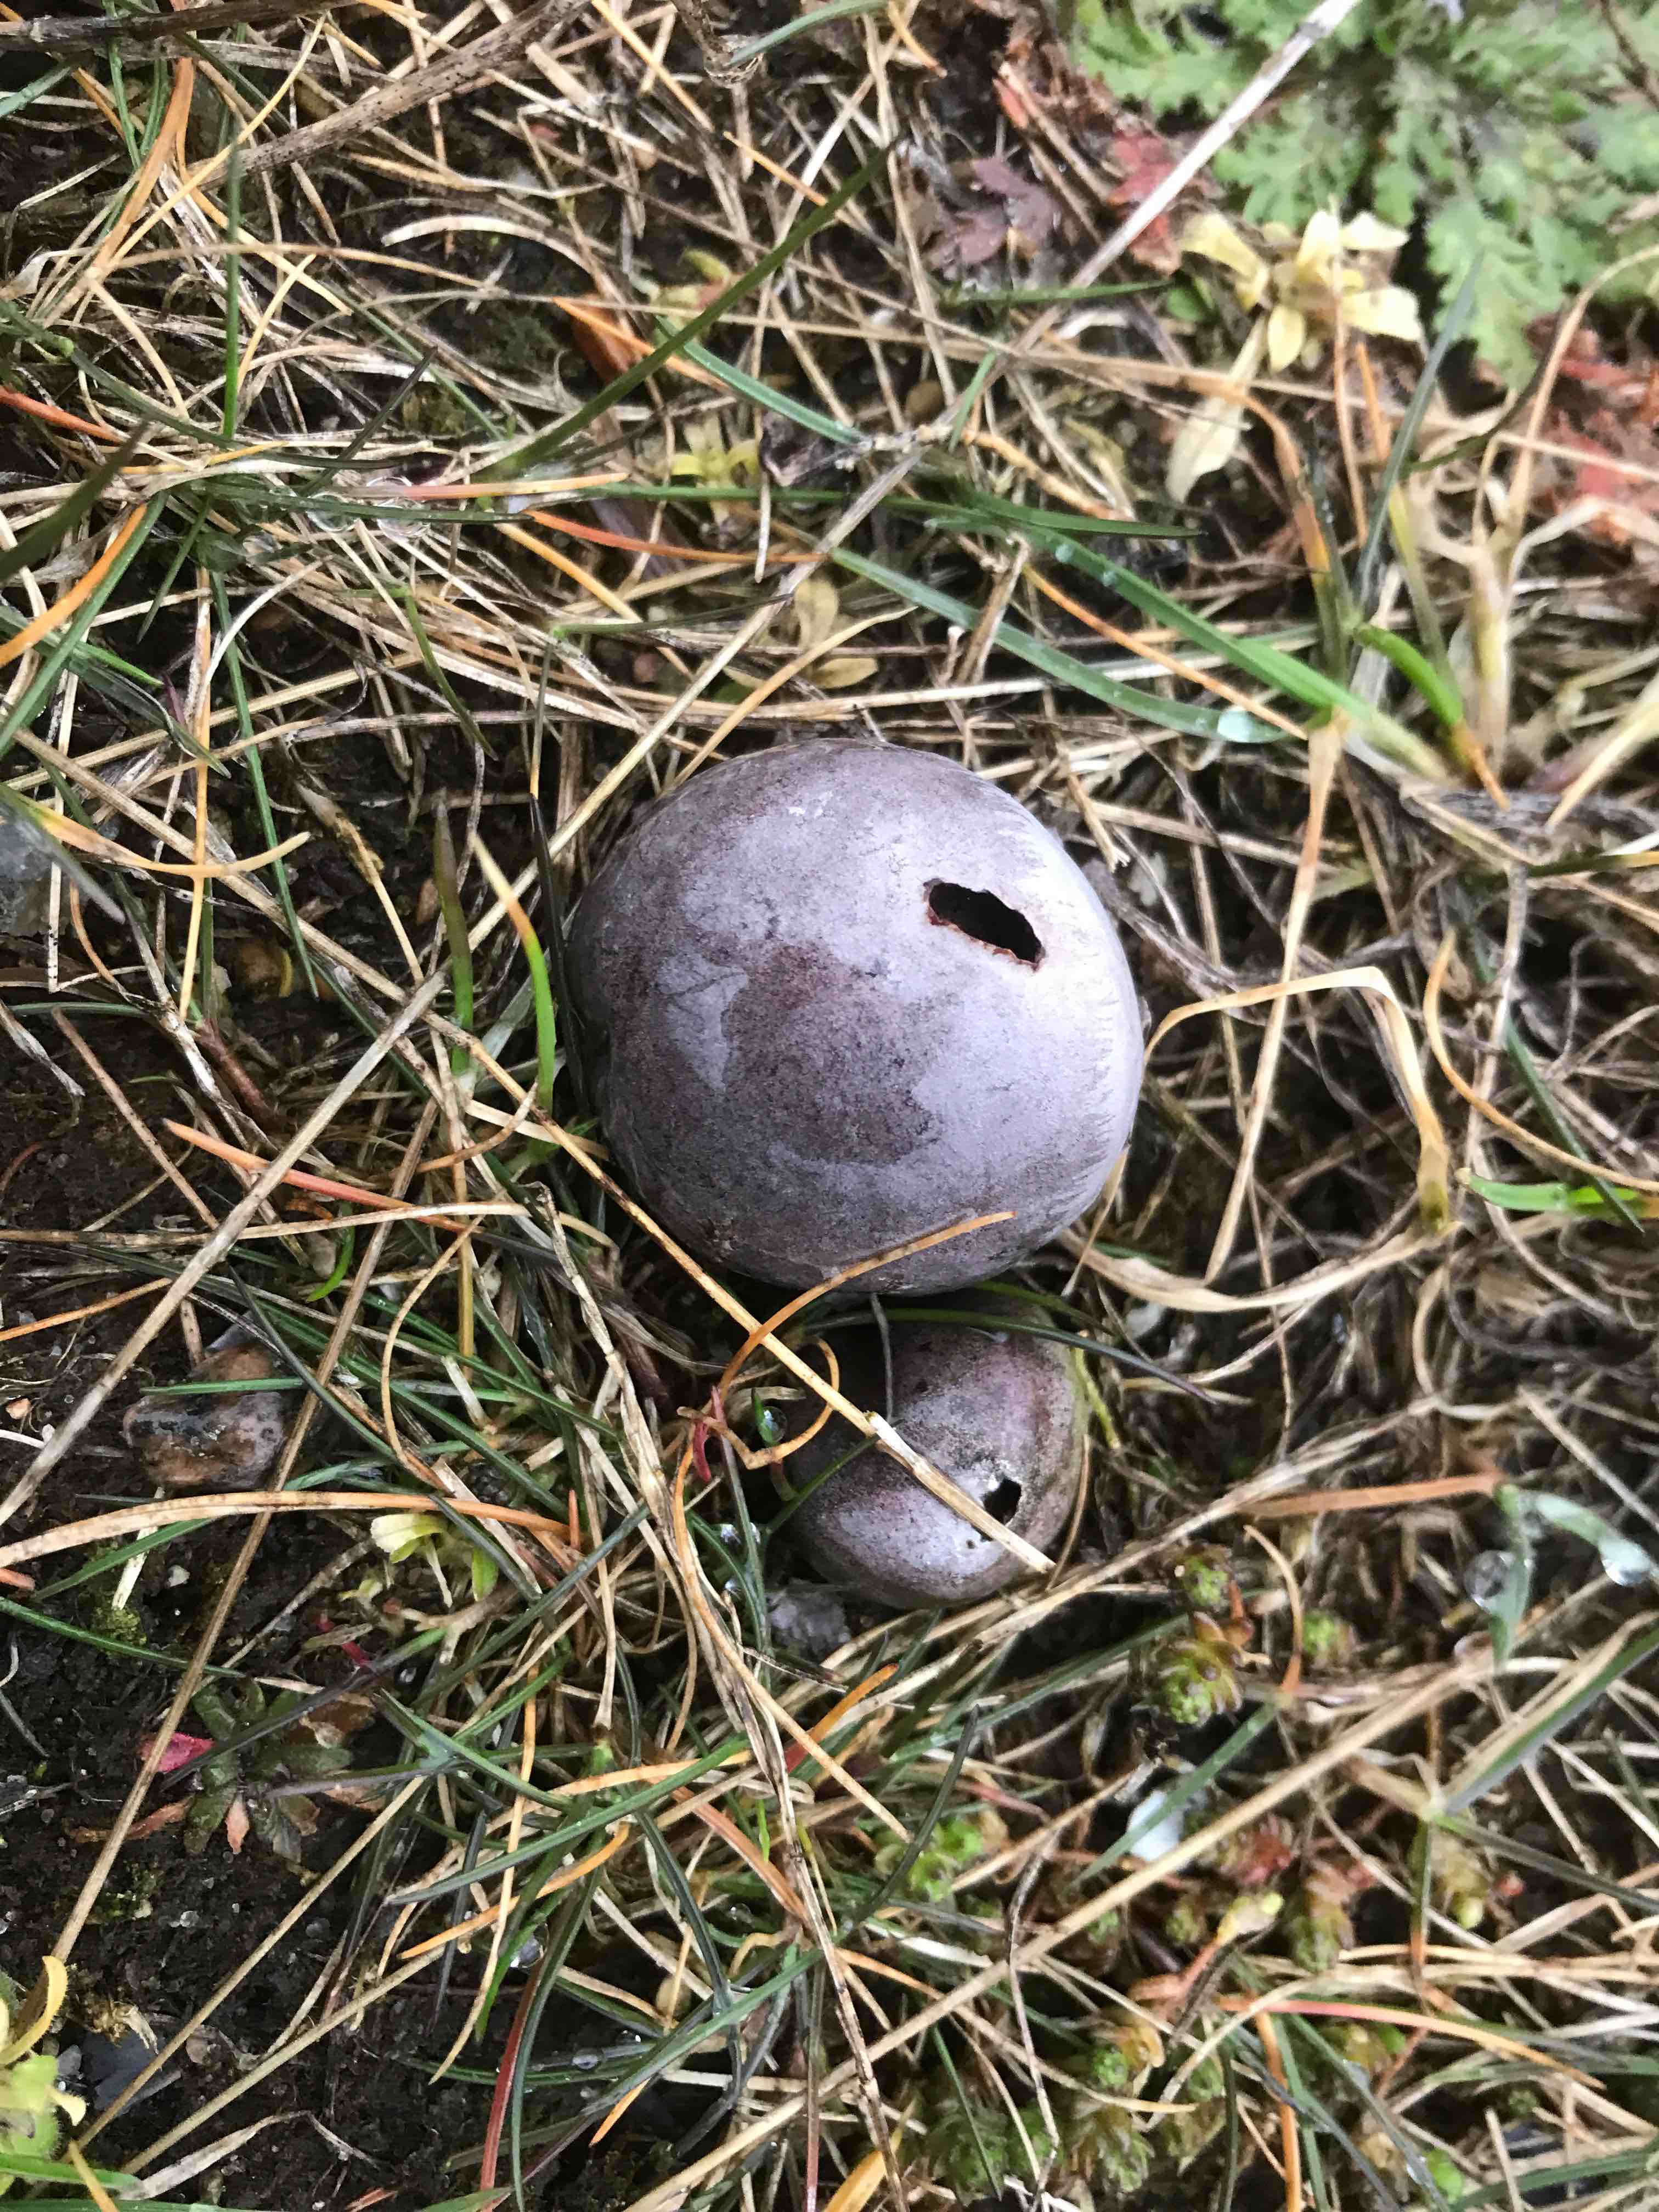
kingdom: Fungi
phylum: Basidiomycota
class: Agaricomycetes
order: Agaricales
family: Lycoperdaceae
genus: Bovista
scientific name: Bovista plumbea
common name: blygrå bovist
